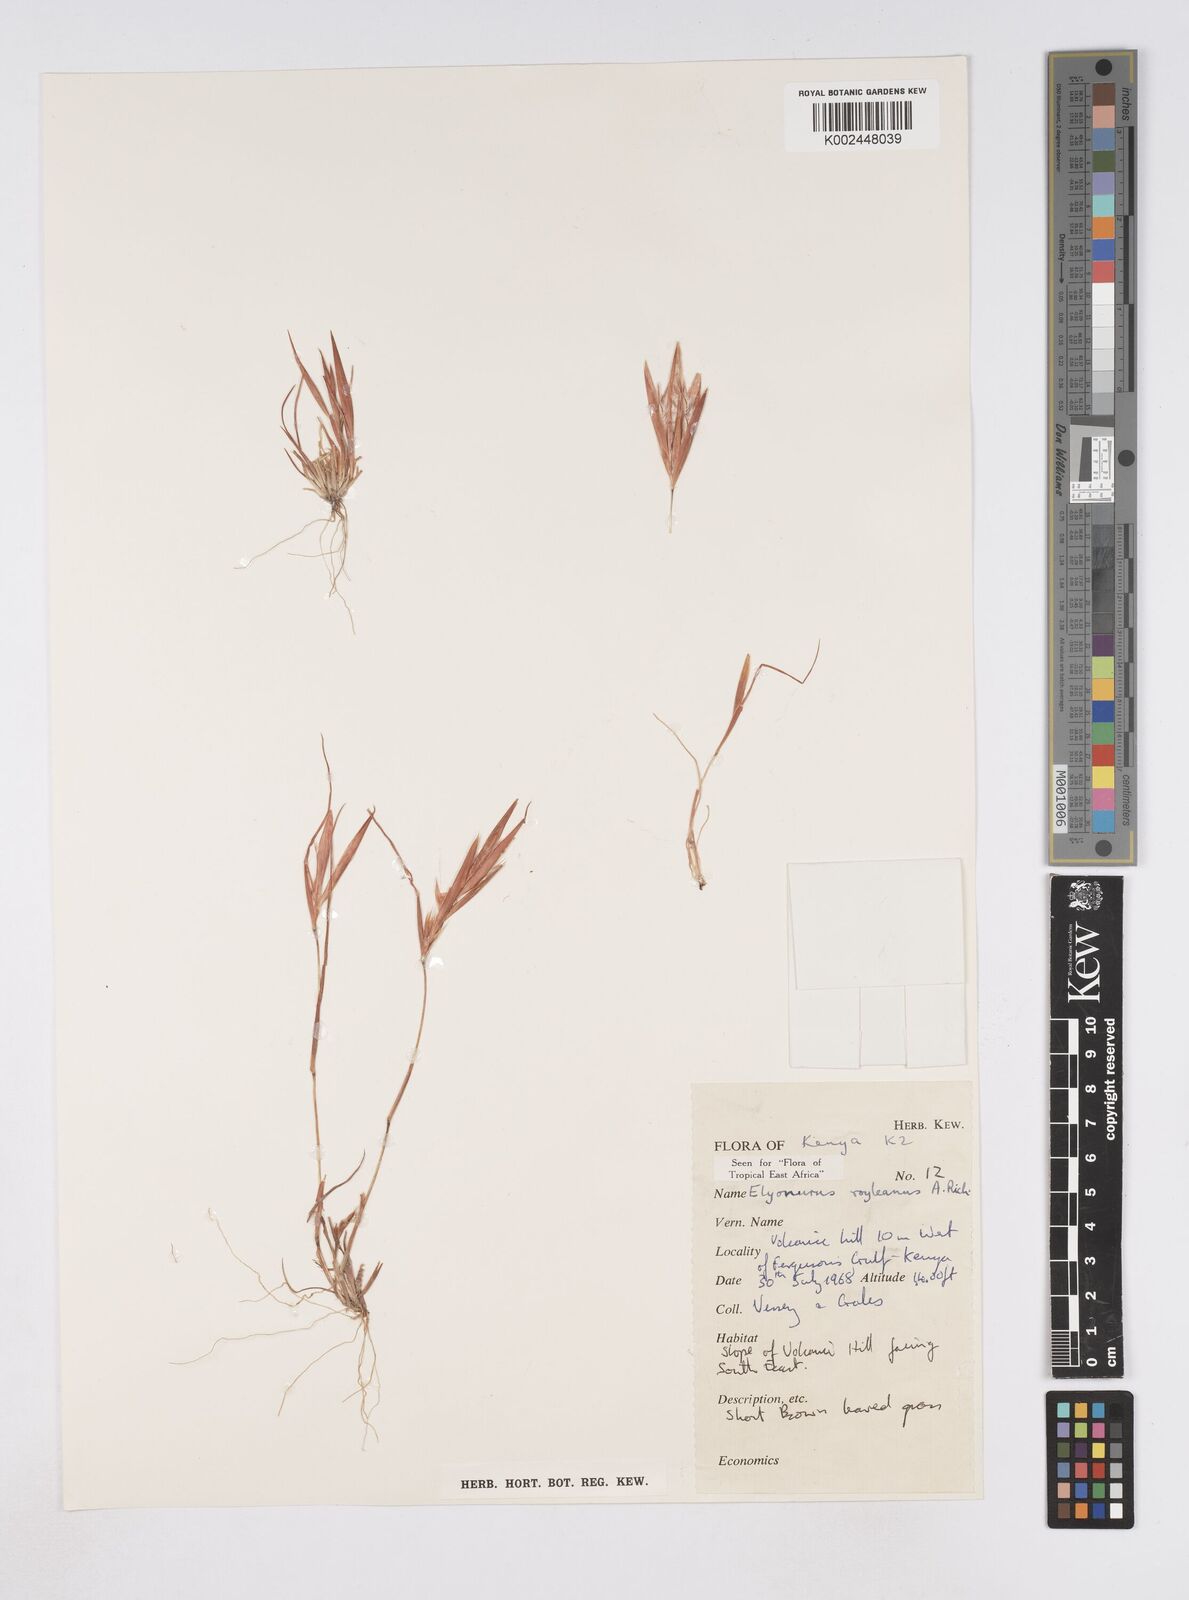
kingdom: Plantae
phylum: Tracheophyta
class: Liliopsida
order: Poales
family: Poaceae
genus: Elionurus
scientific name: Elionurus royleanus
